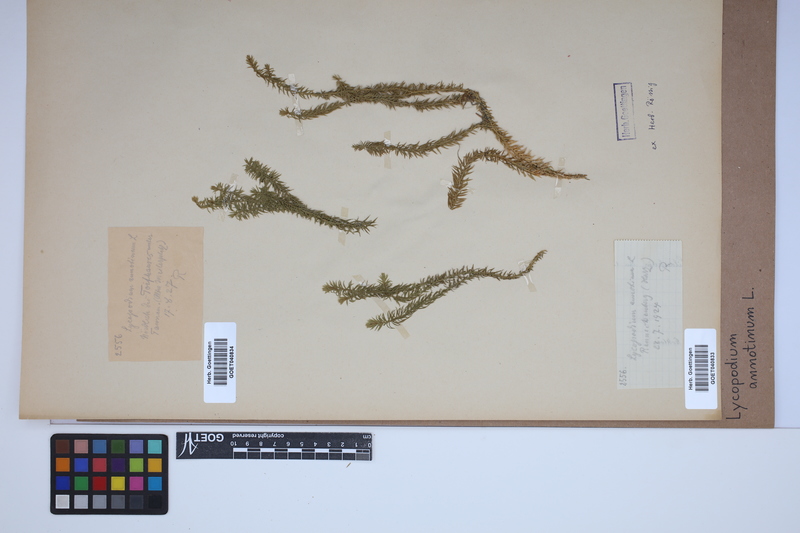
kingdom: Plantae
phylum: Tracheophyta
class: Lycopodiopsida
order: Lycopodiales
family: Lycopodiaceae
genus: Spinulum
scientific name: Spinulum annotinum
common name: Interrupted club-moss
